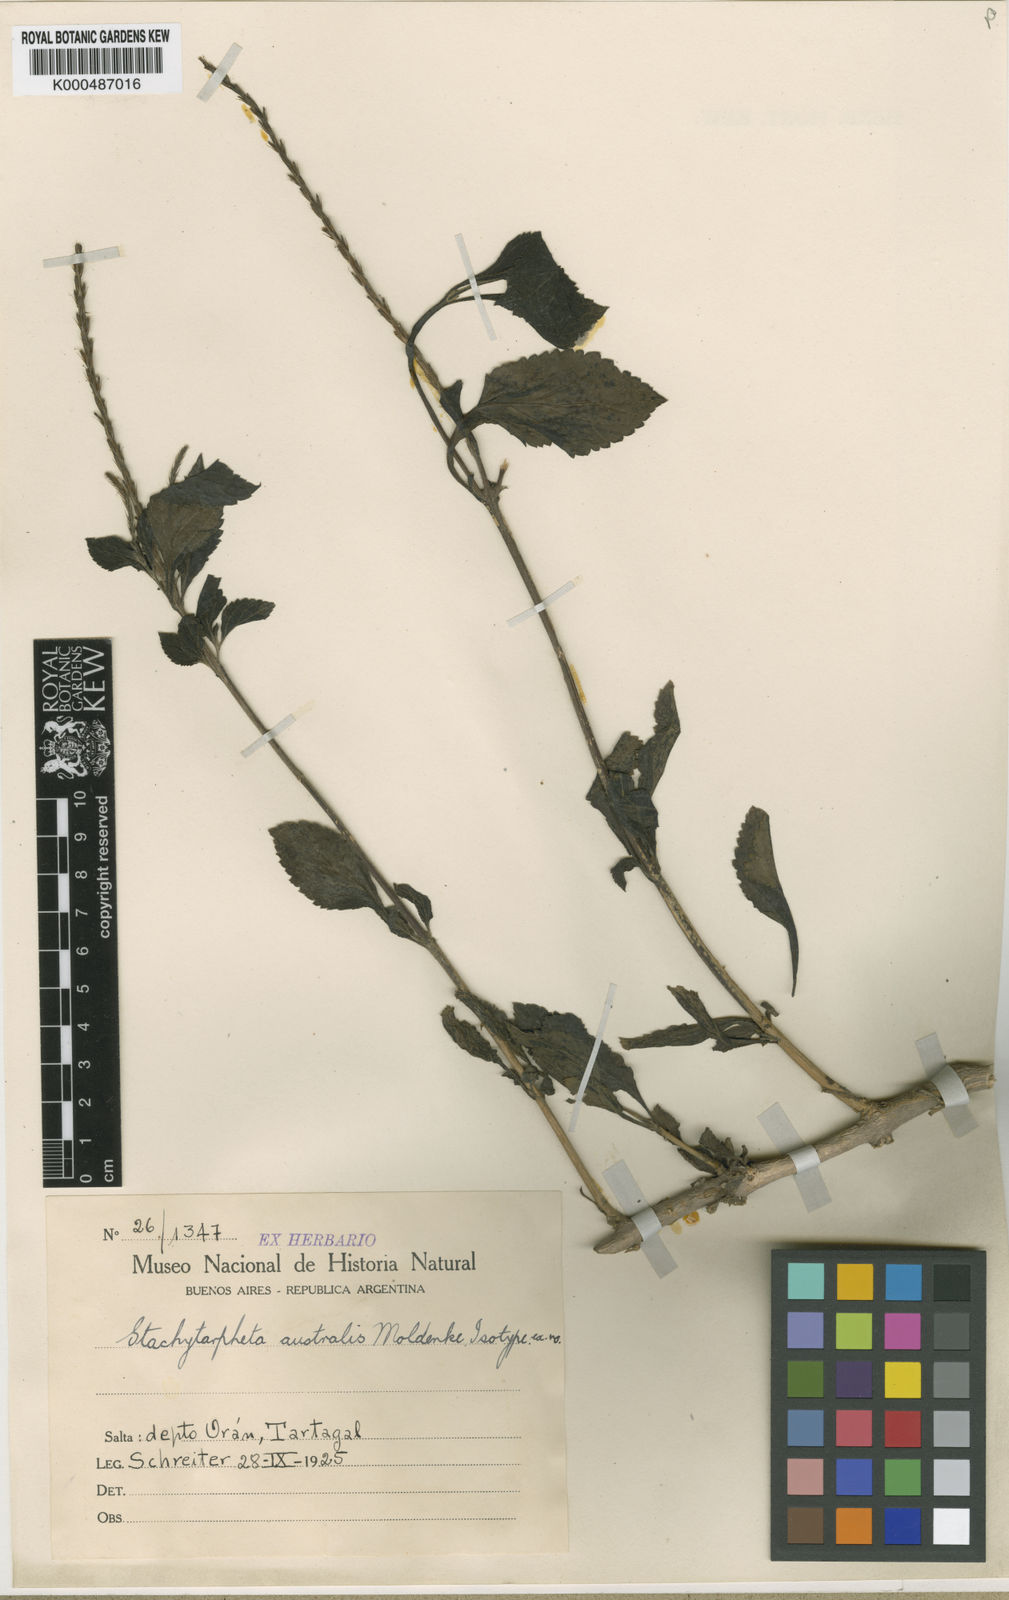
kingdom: Plantae
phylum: Tracheophyta
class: Magnoliopsida
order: Lamiales
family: Verbenaceae
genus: Stachytarpheta
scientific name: Stachytarpheta cayennensis
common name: Cayenne porterweed
